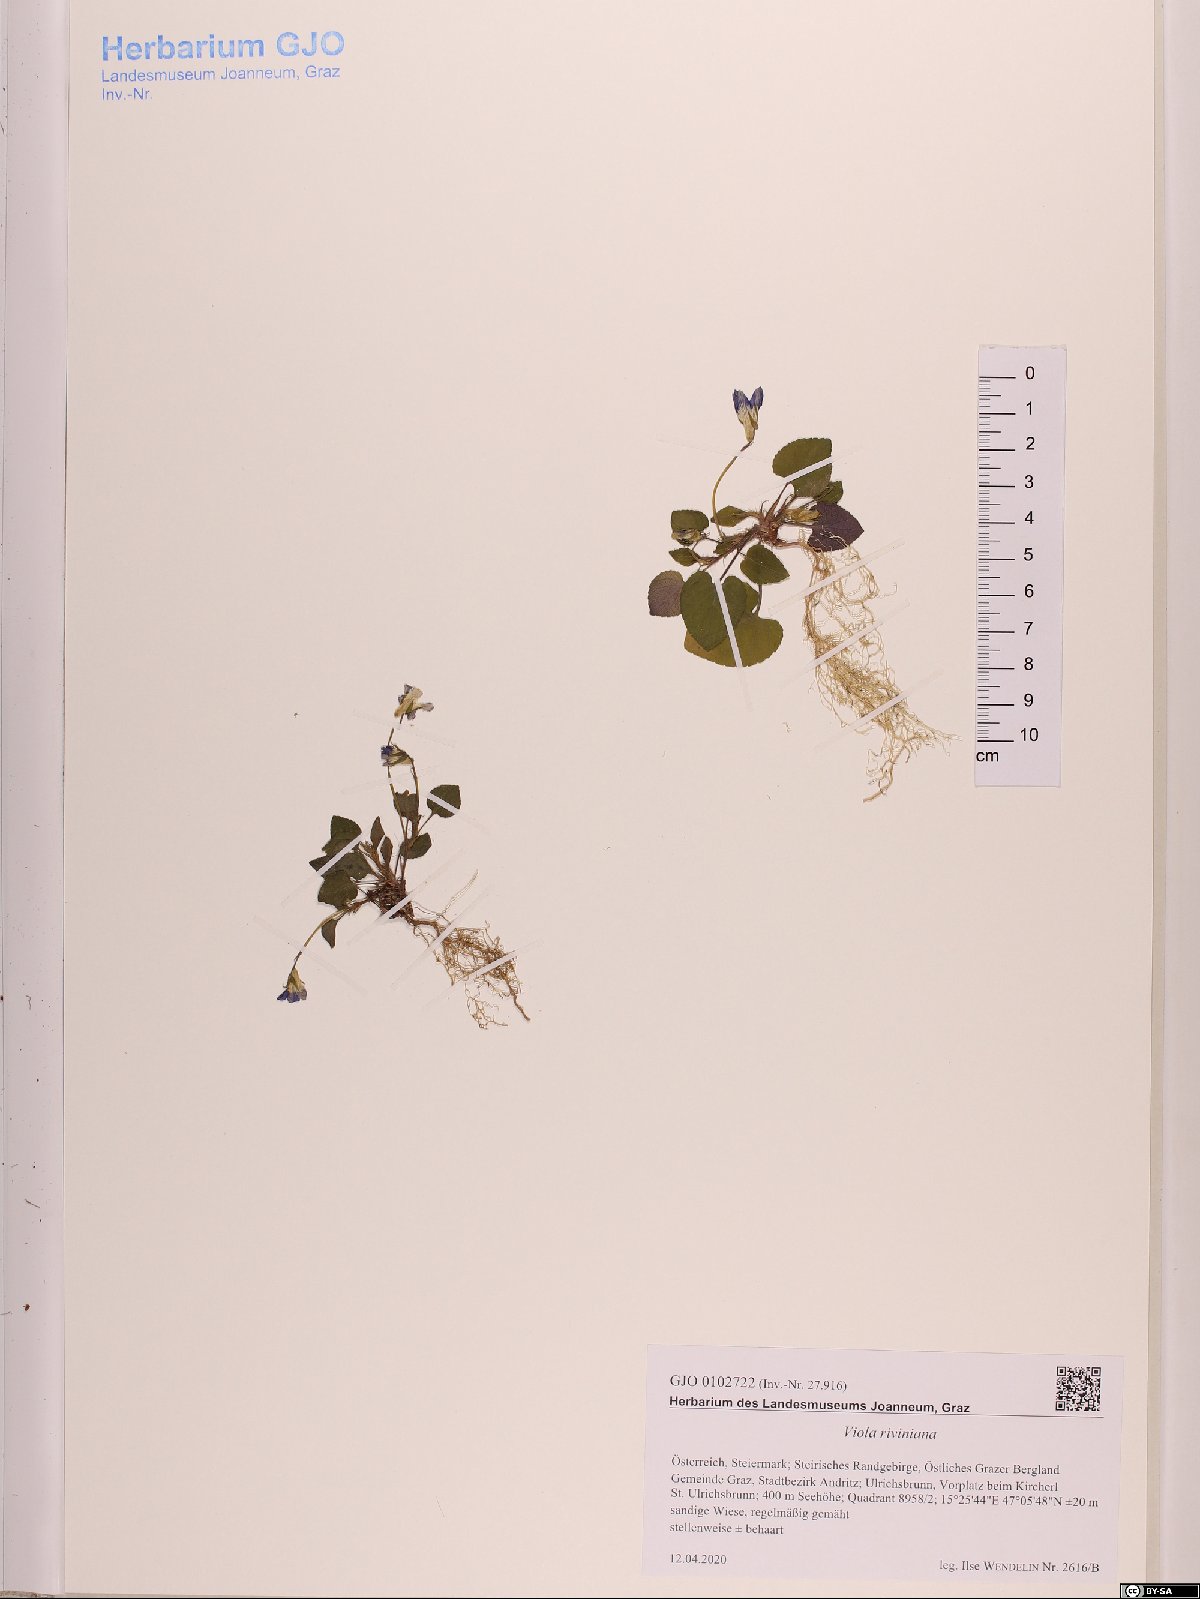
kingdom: Plantae
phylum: Tracheophyta
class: Magnoliopsida
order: Malpighiales
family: Violaceae
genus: Viola
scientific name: Viola riviniana
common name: Common dog-violet
